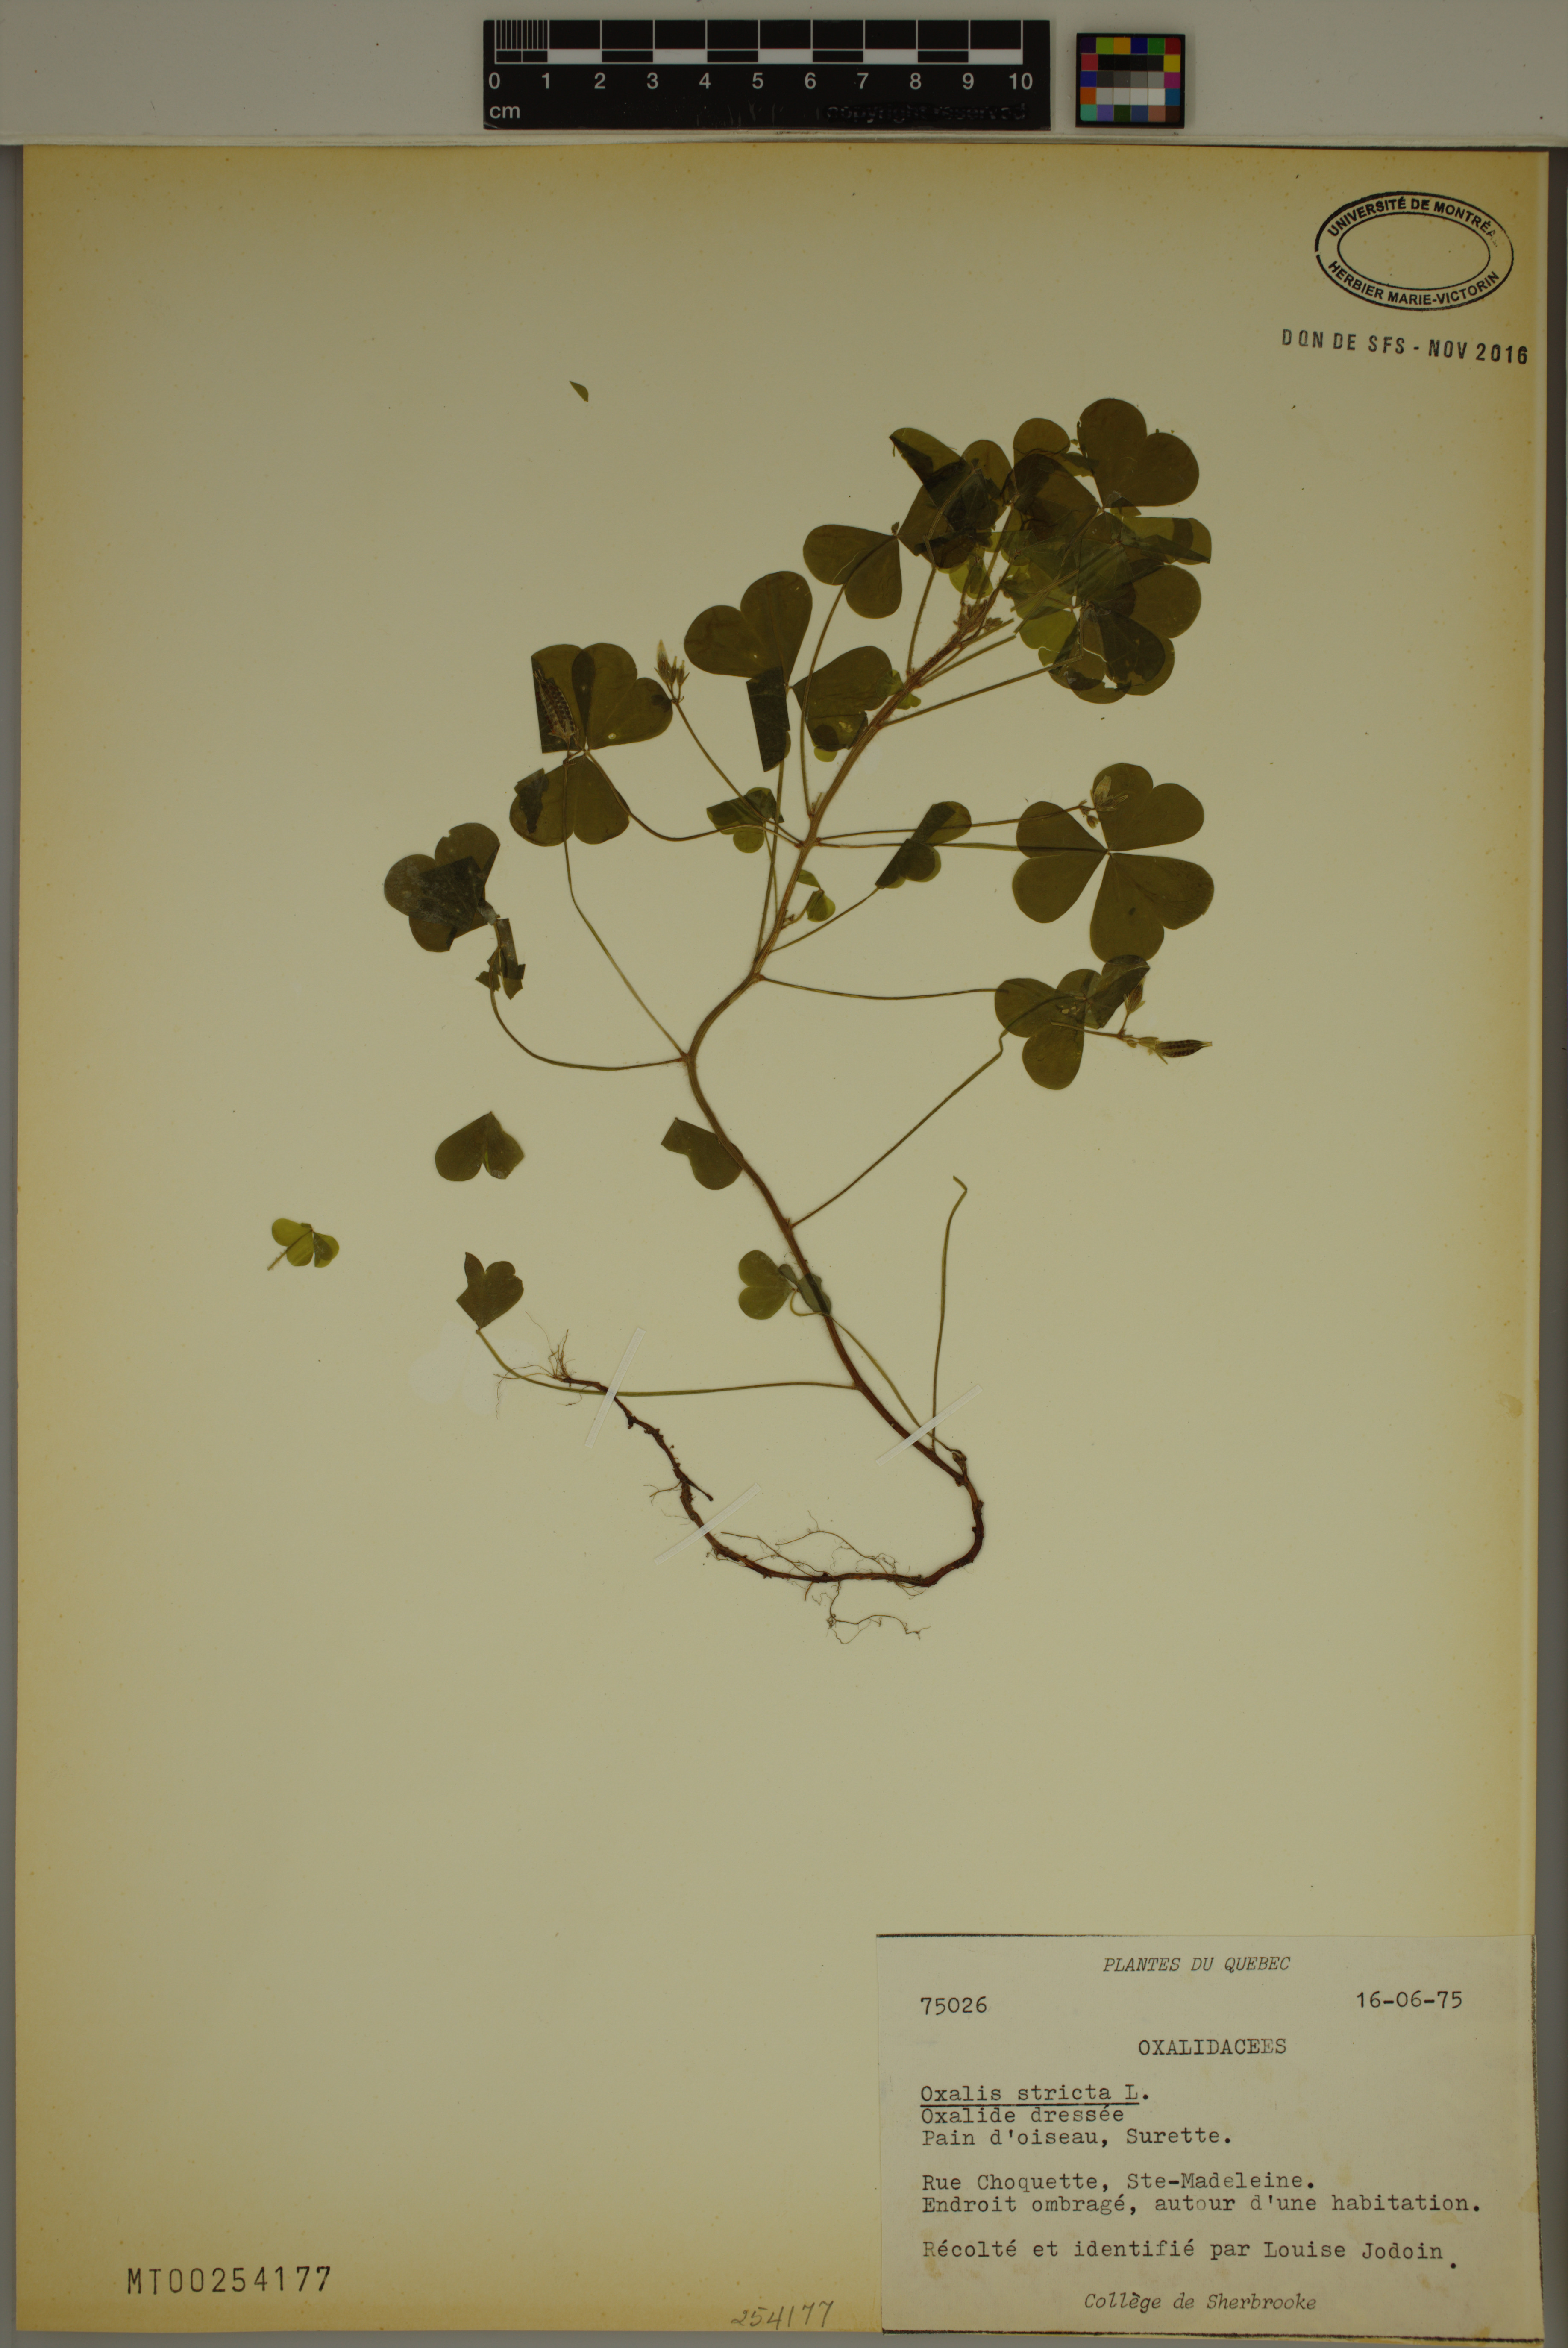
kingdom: Plantae
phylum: Tracheophyta
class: Magnoliopsida
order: Oxalidales
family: Oxalidaceae
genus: Oxalis
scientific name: Oxalis stricta
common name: Upright yellow-sorrel
